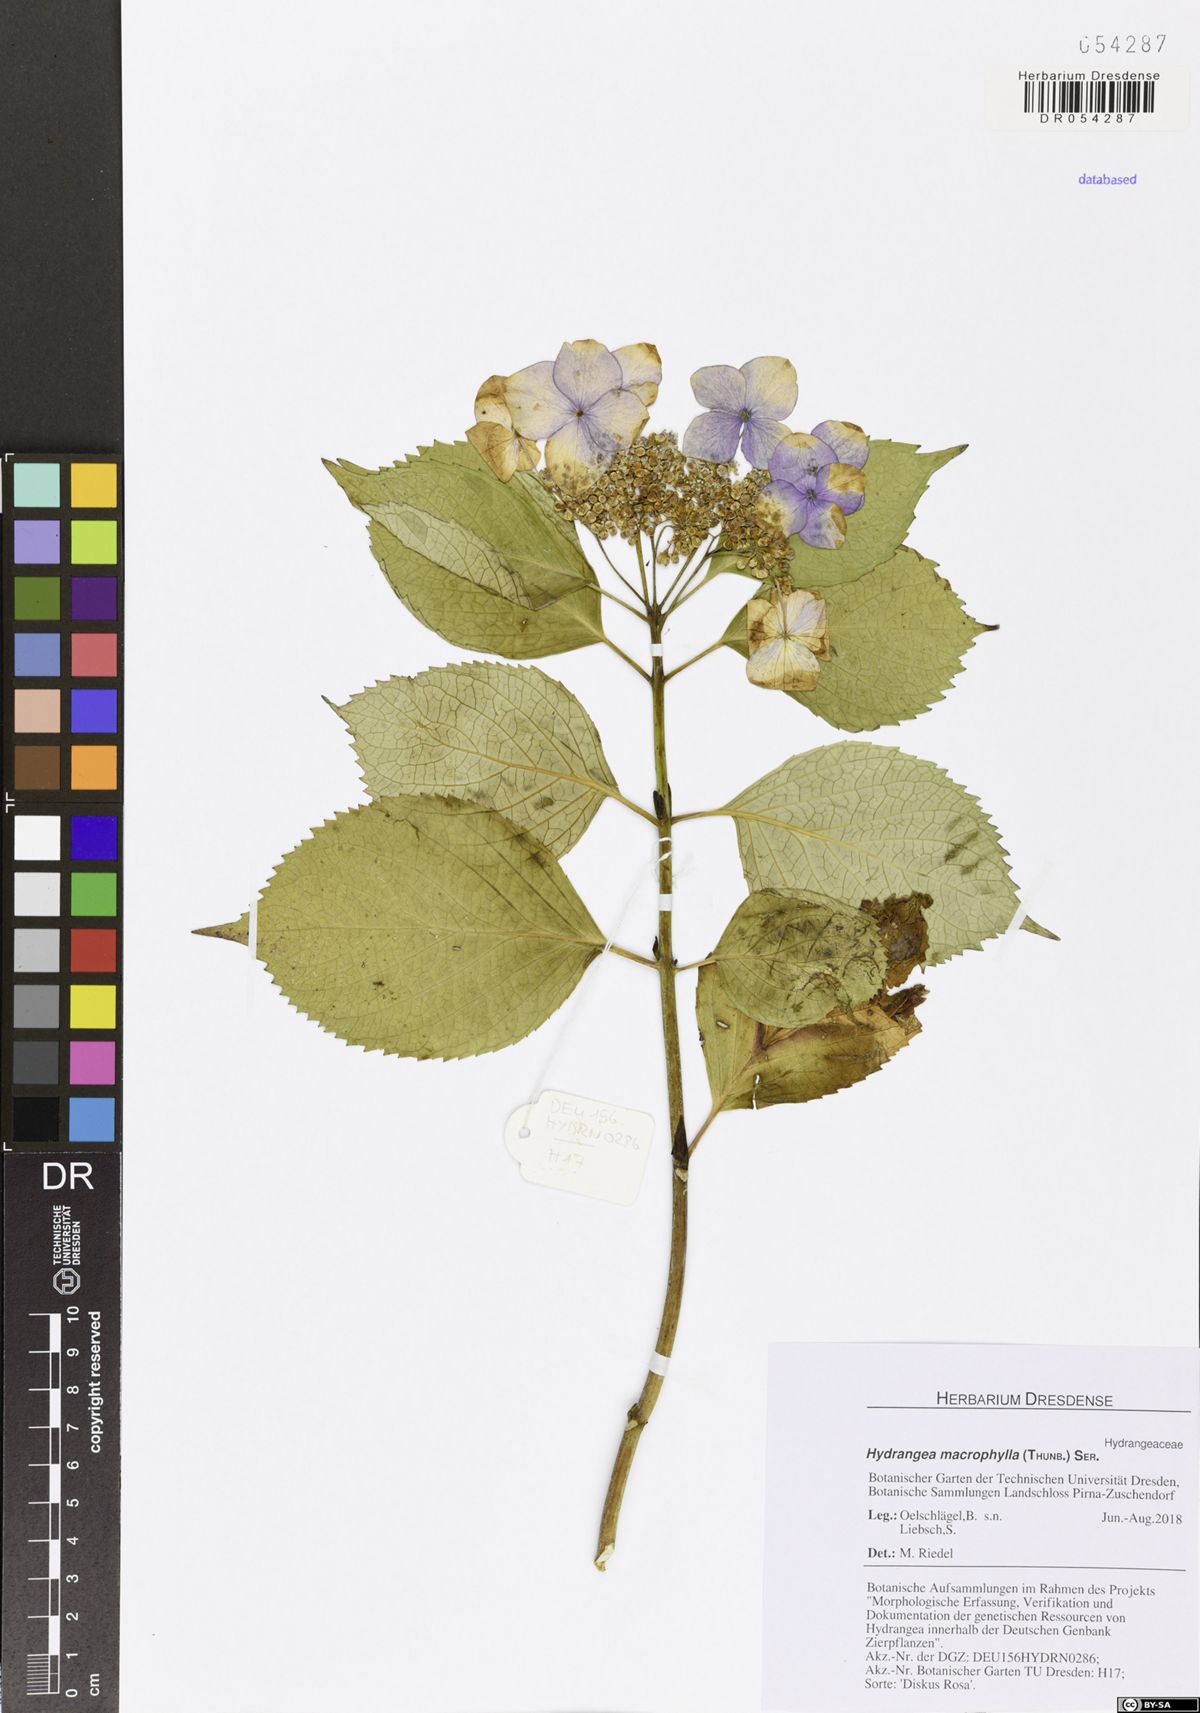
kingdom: Plantae
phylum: Tracheophyta
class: Magnoliopsida
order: Cornales
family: Hydrangeaceae
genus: Hydrangea
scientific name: Hydrangea macrophylla
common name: Hydrangea
